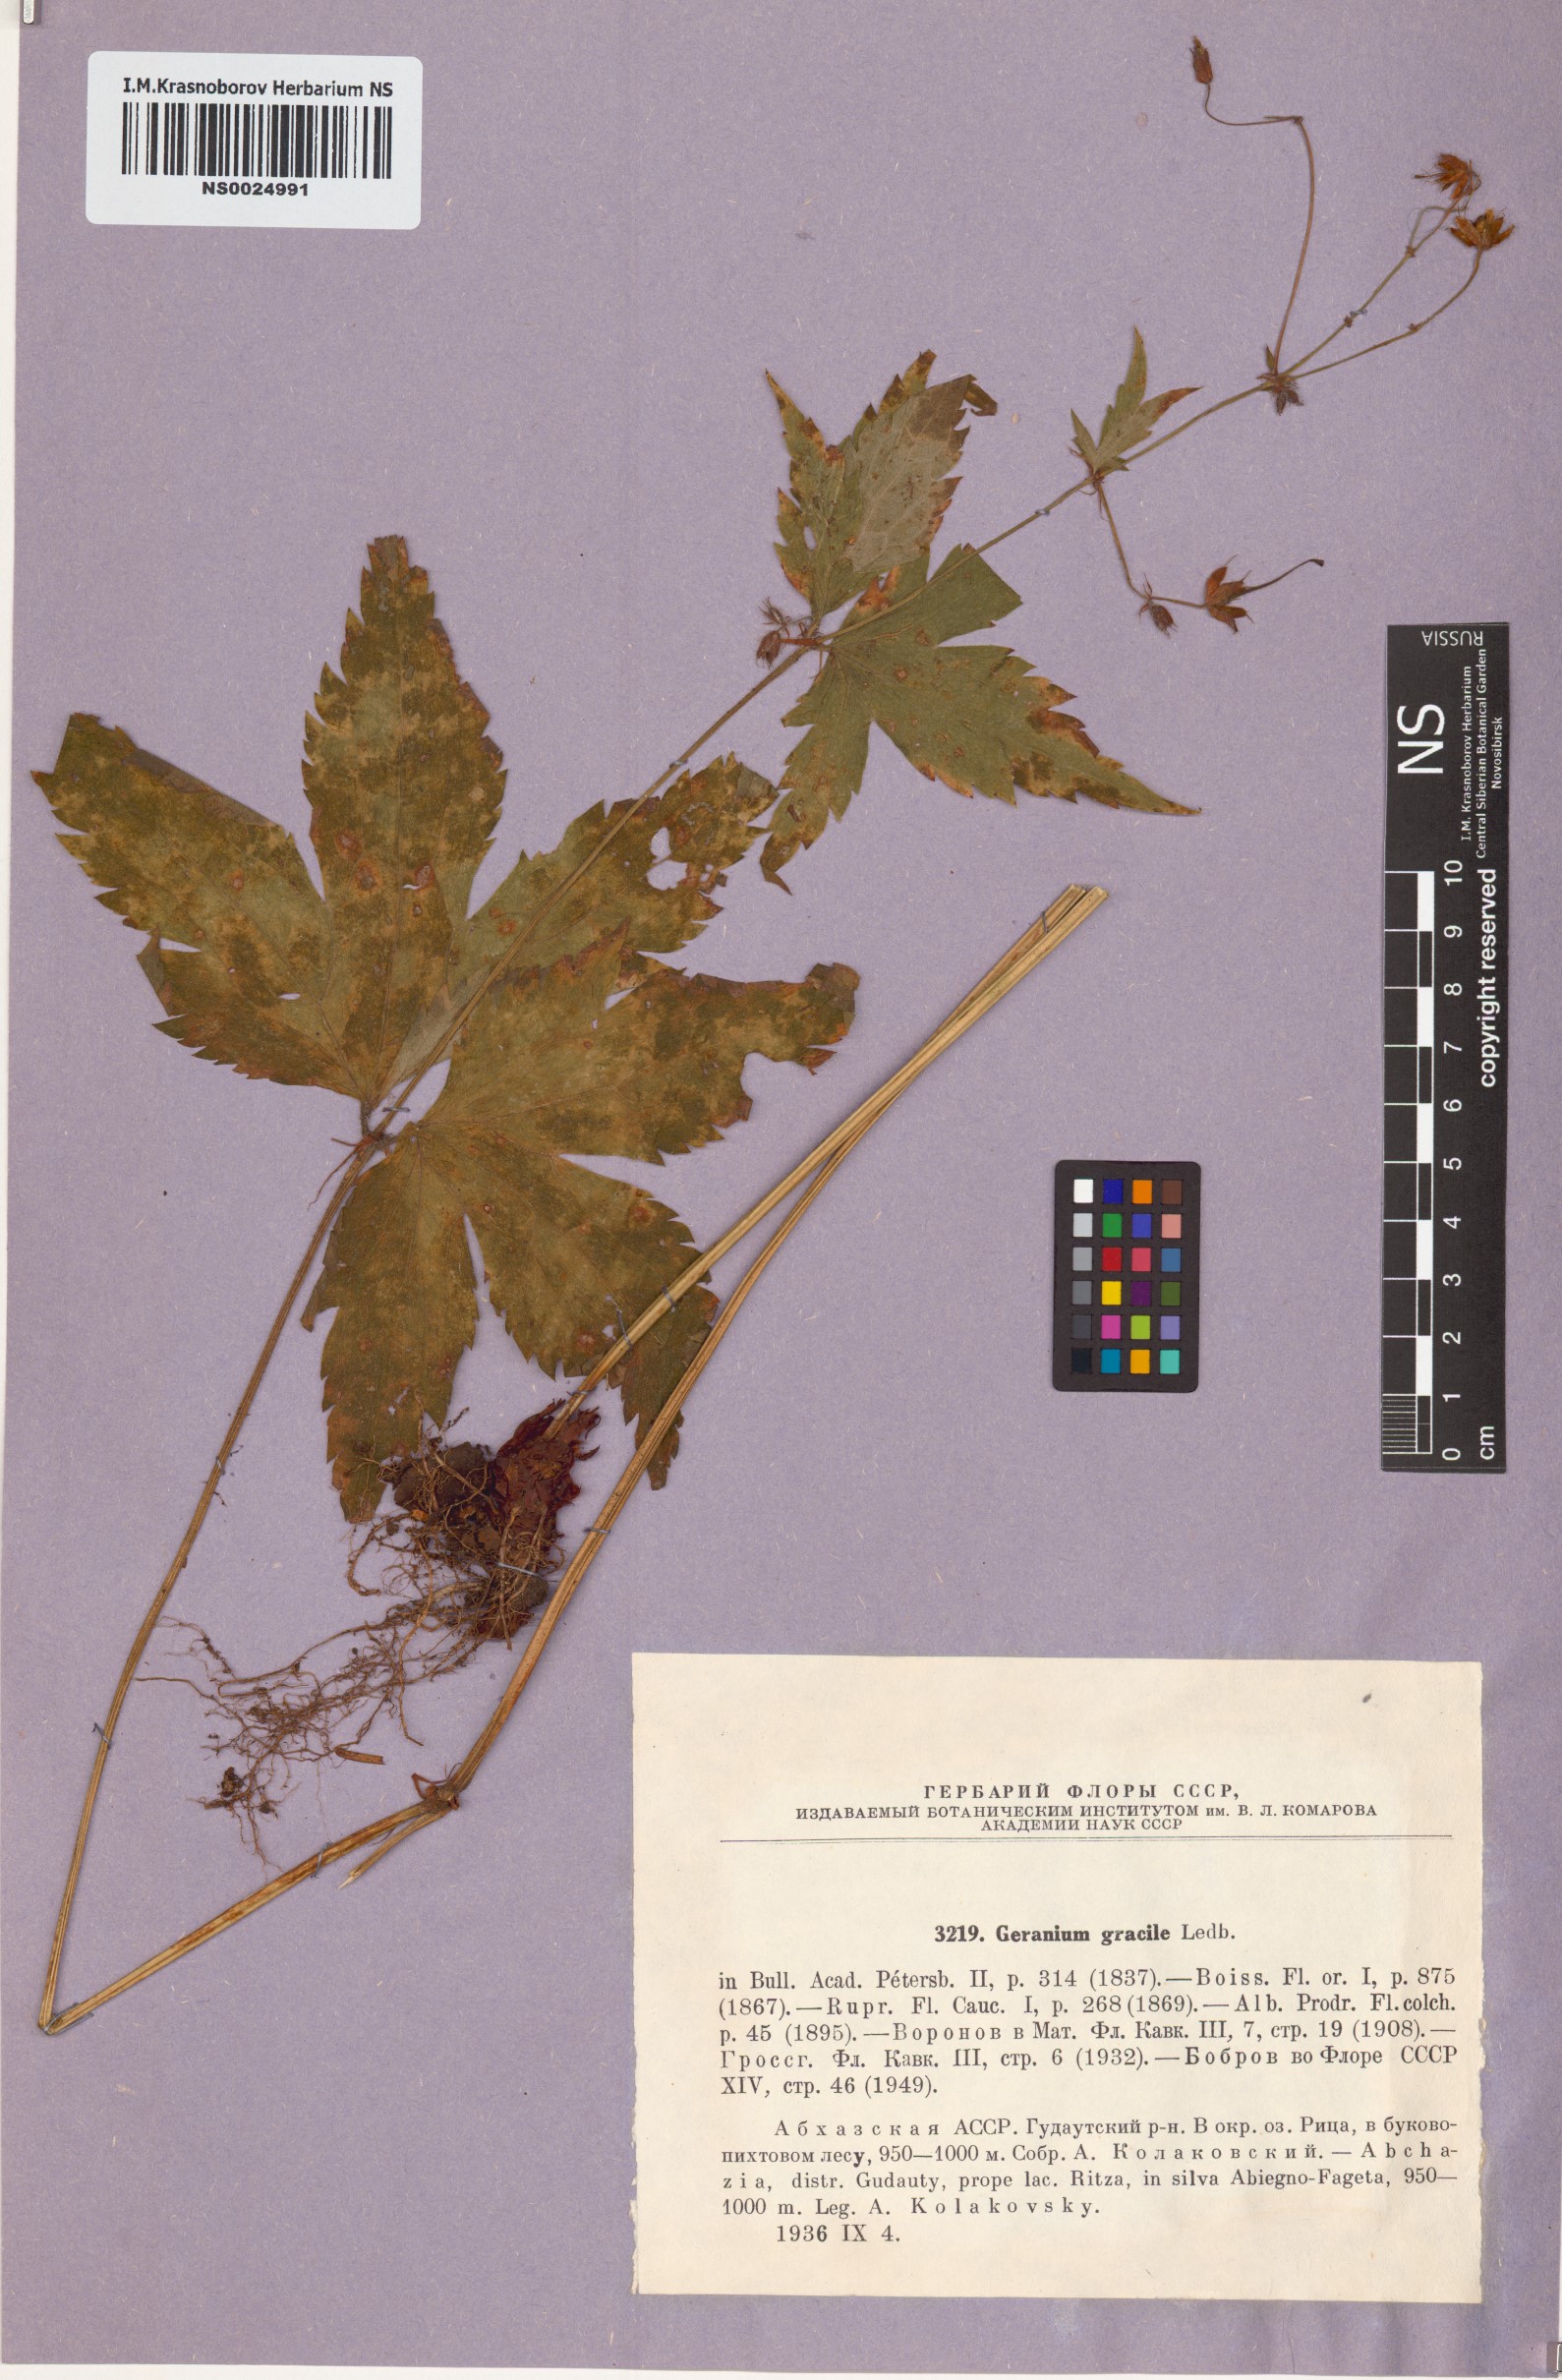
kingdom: Plantae
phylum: Tracheophyta
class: Magnoliopsida
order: Geraniales
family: Geraniaceae
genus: Geranium
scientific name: Geranium gracile
